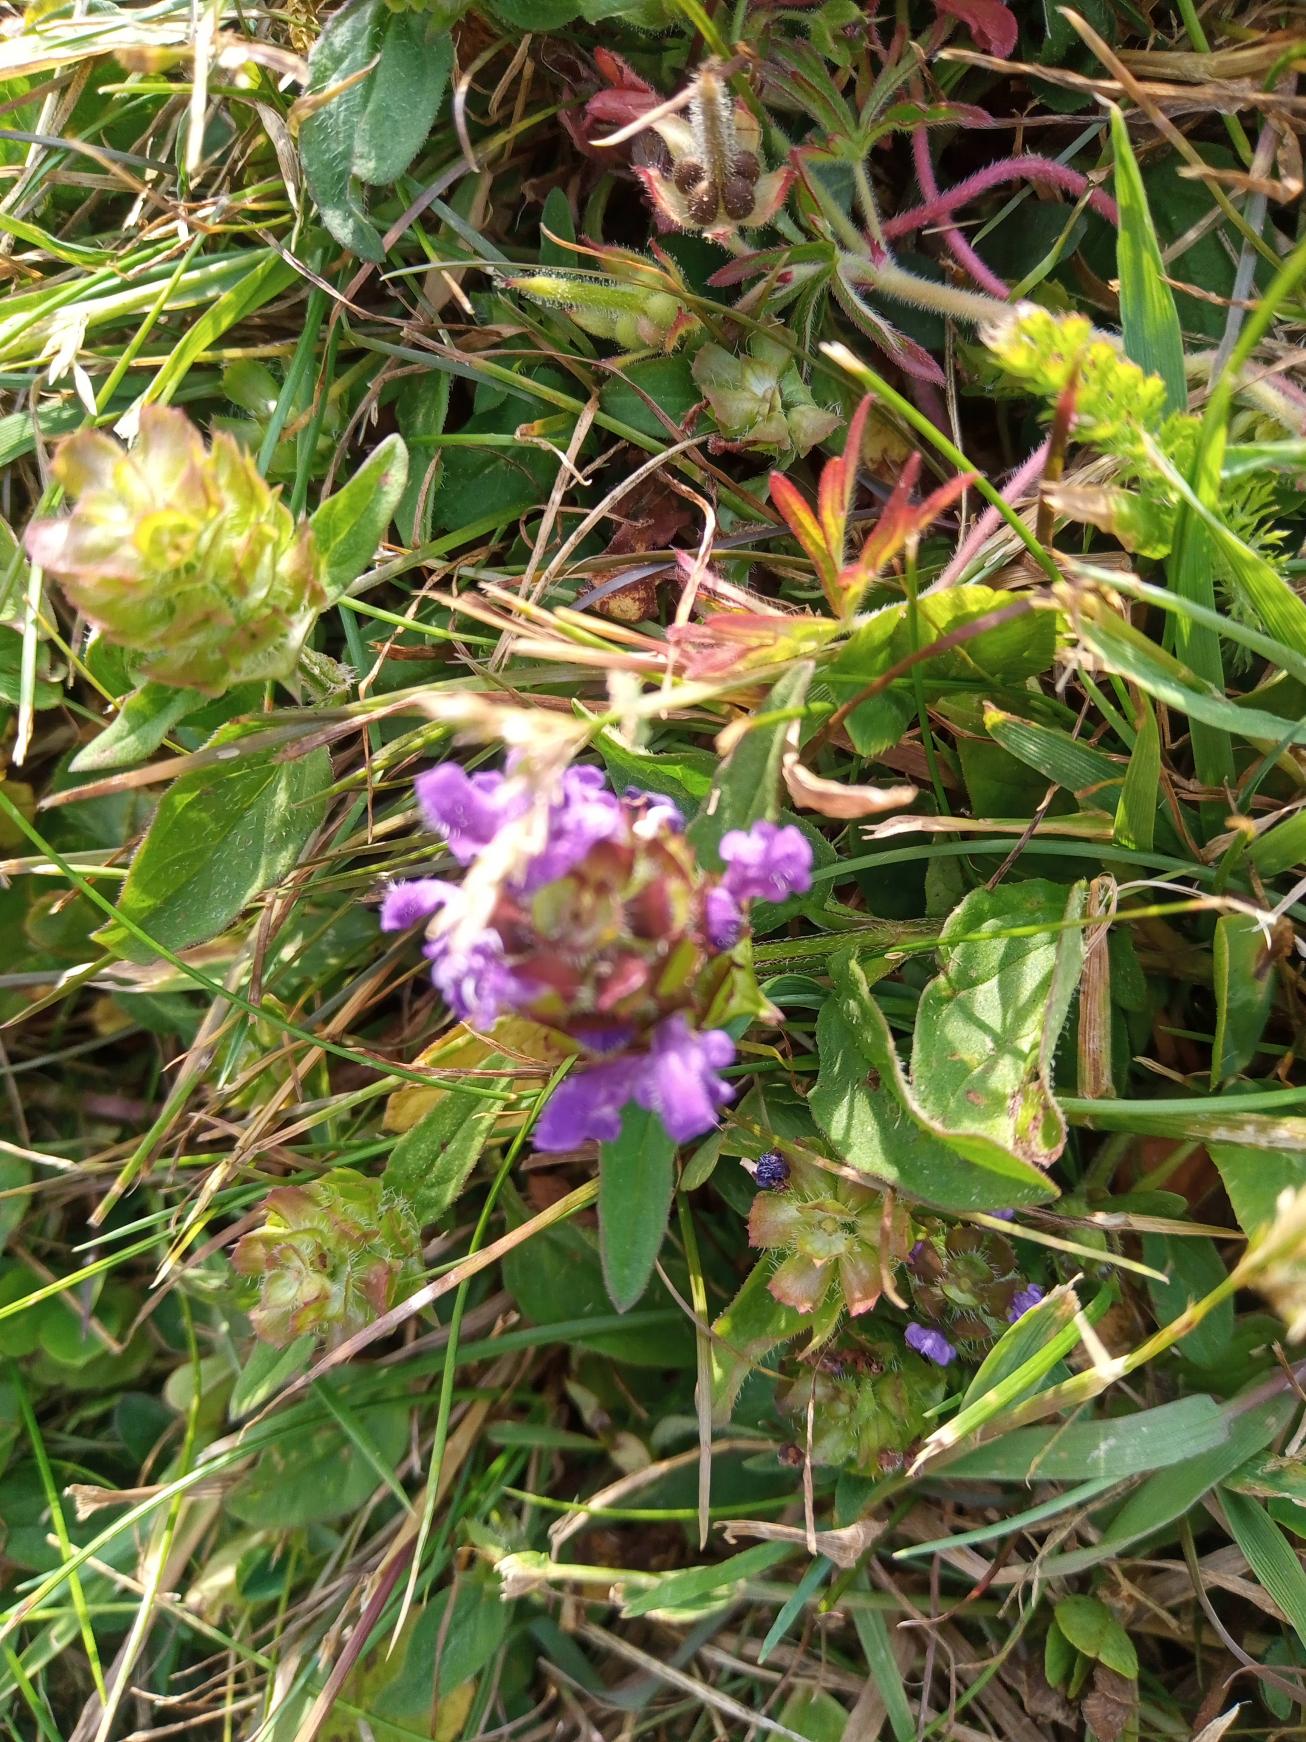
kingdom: Plantae
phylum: Tracheophyta
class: Magnoliopsida
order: Lamiales
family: Lamiaceae
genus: Prunella
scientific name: Prunella vulgaris
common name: Almindelig brunelle
